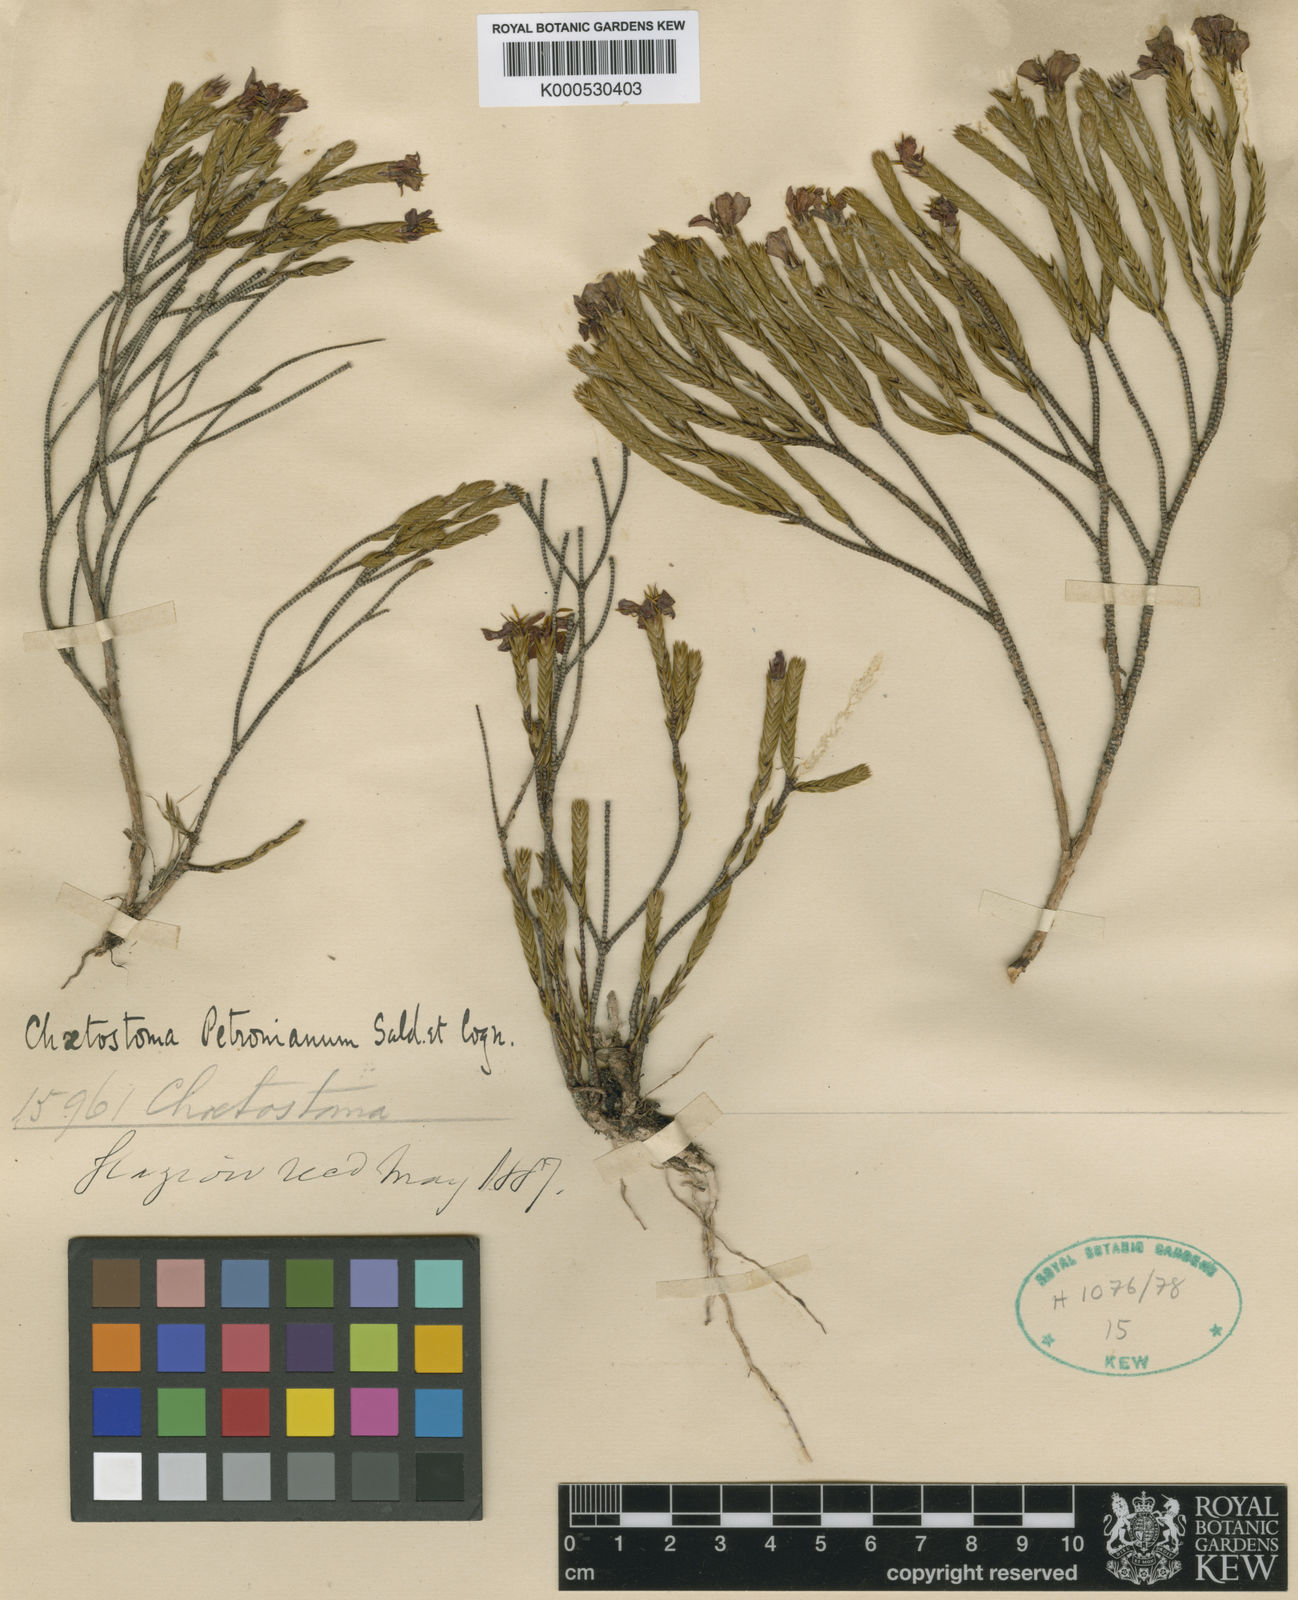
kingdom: Plantae
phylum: Tracheophyta
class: Magnoliopsida
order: Myrtales
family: Melastomataceae
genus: Microlicia
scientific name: Microlicia glaziovii
